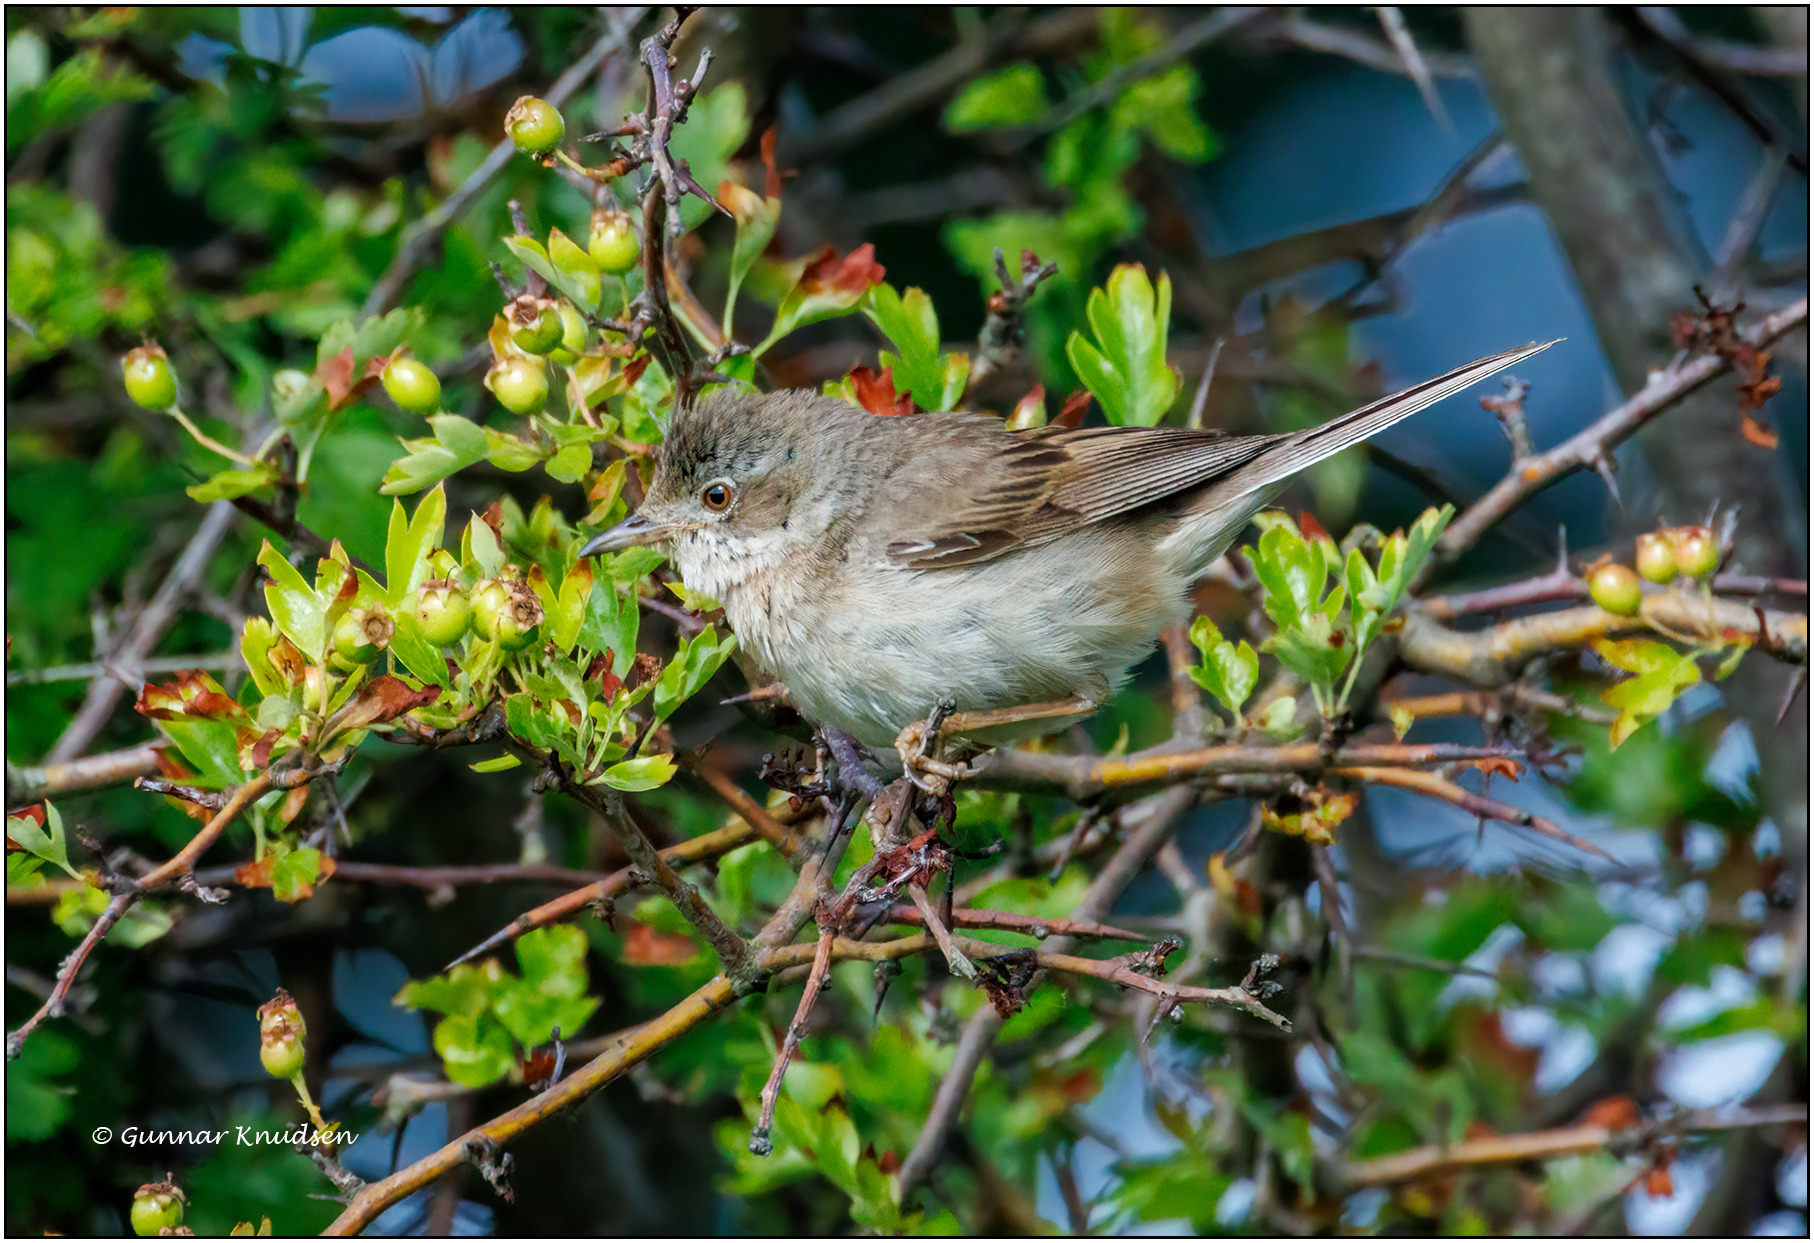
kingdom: Animalia
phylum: Chordata
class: Aves
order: Passeriformes
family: Sylviidae
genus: Sylvia
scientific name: Sylvia communis
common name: Tornsanger
